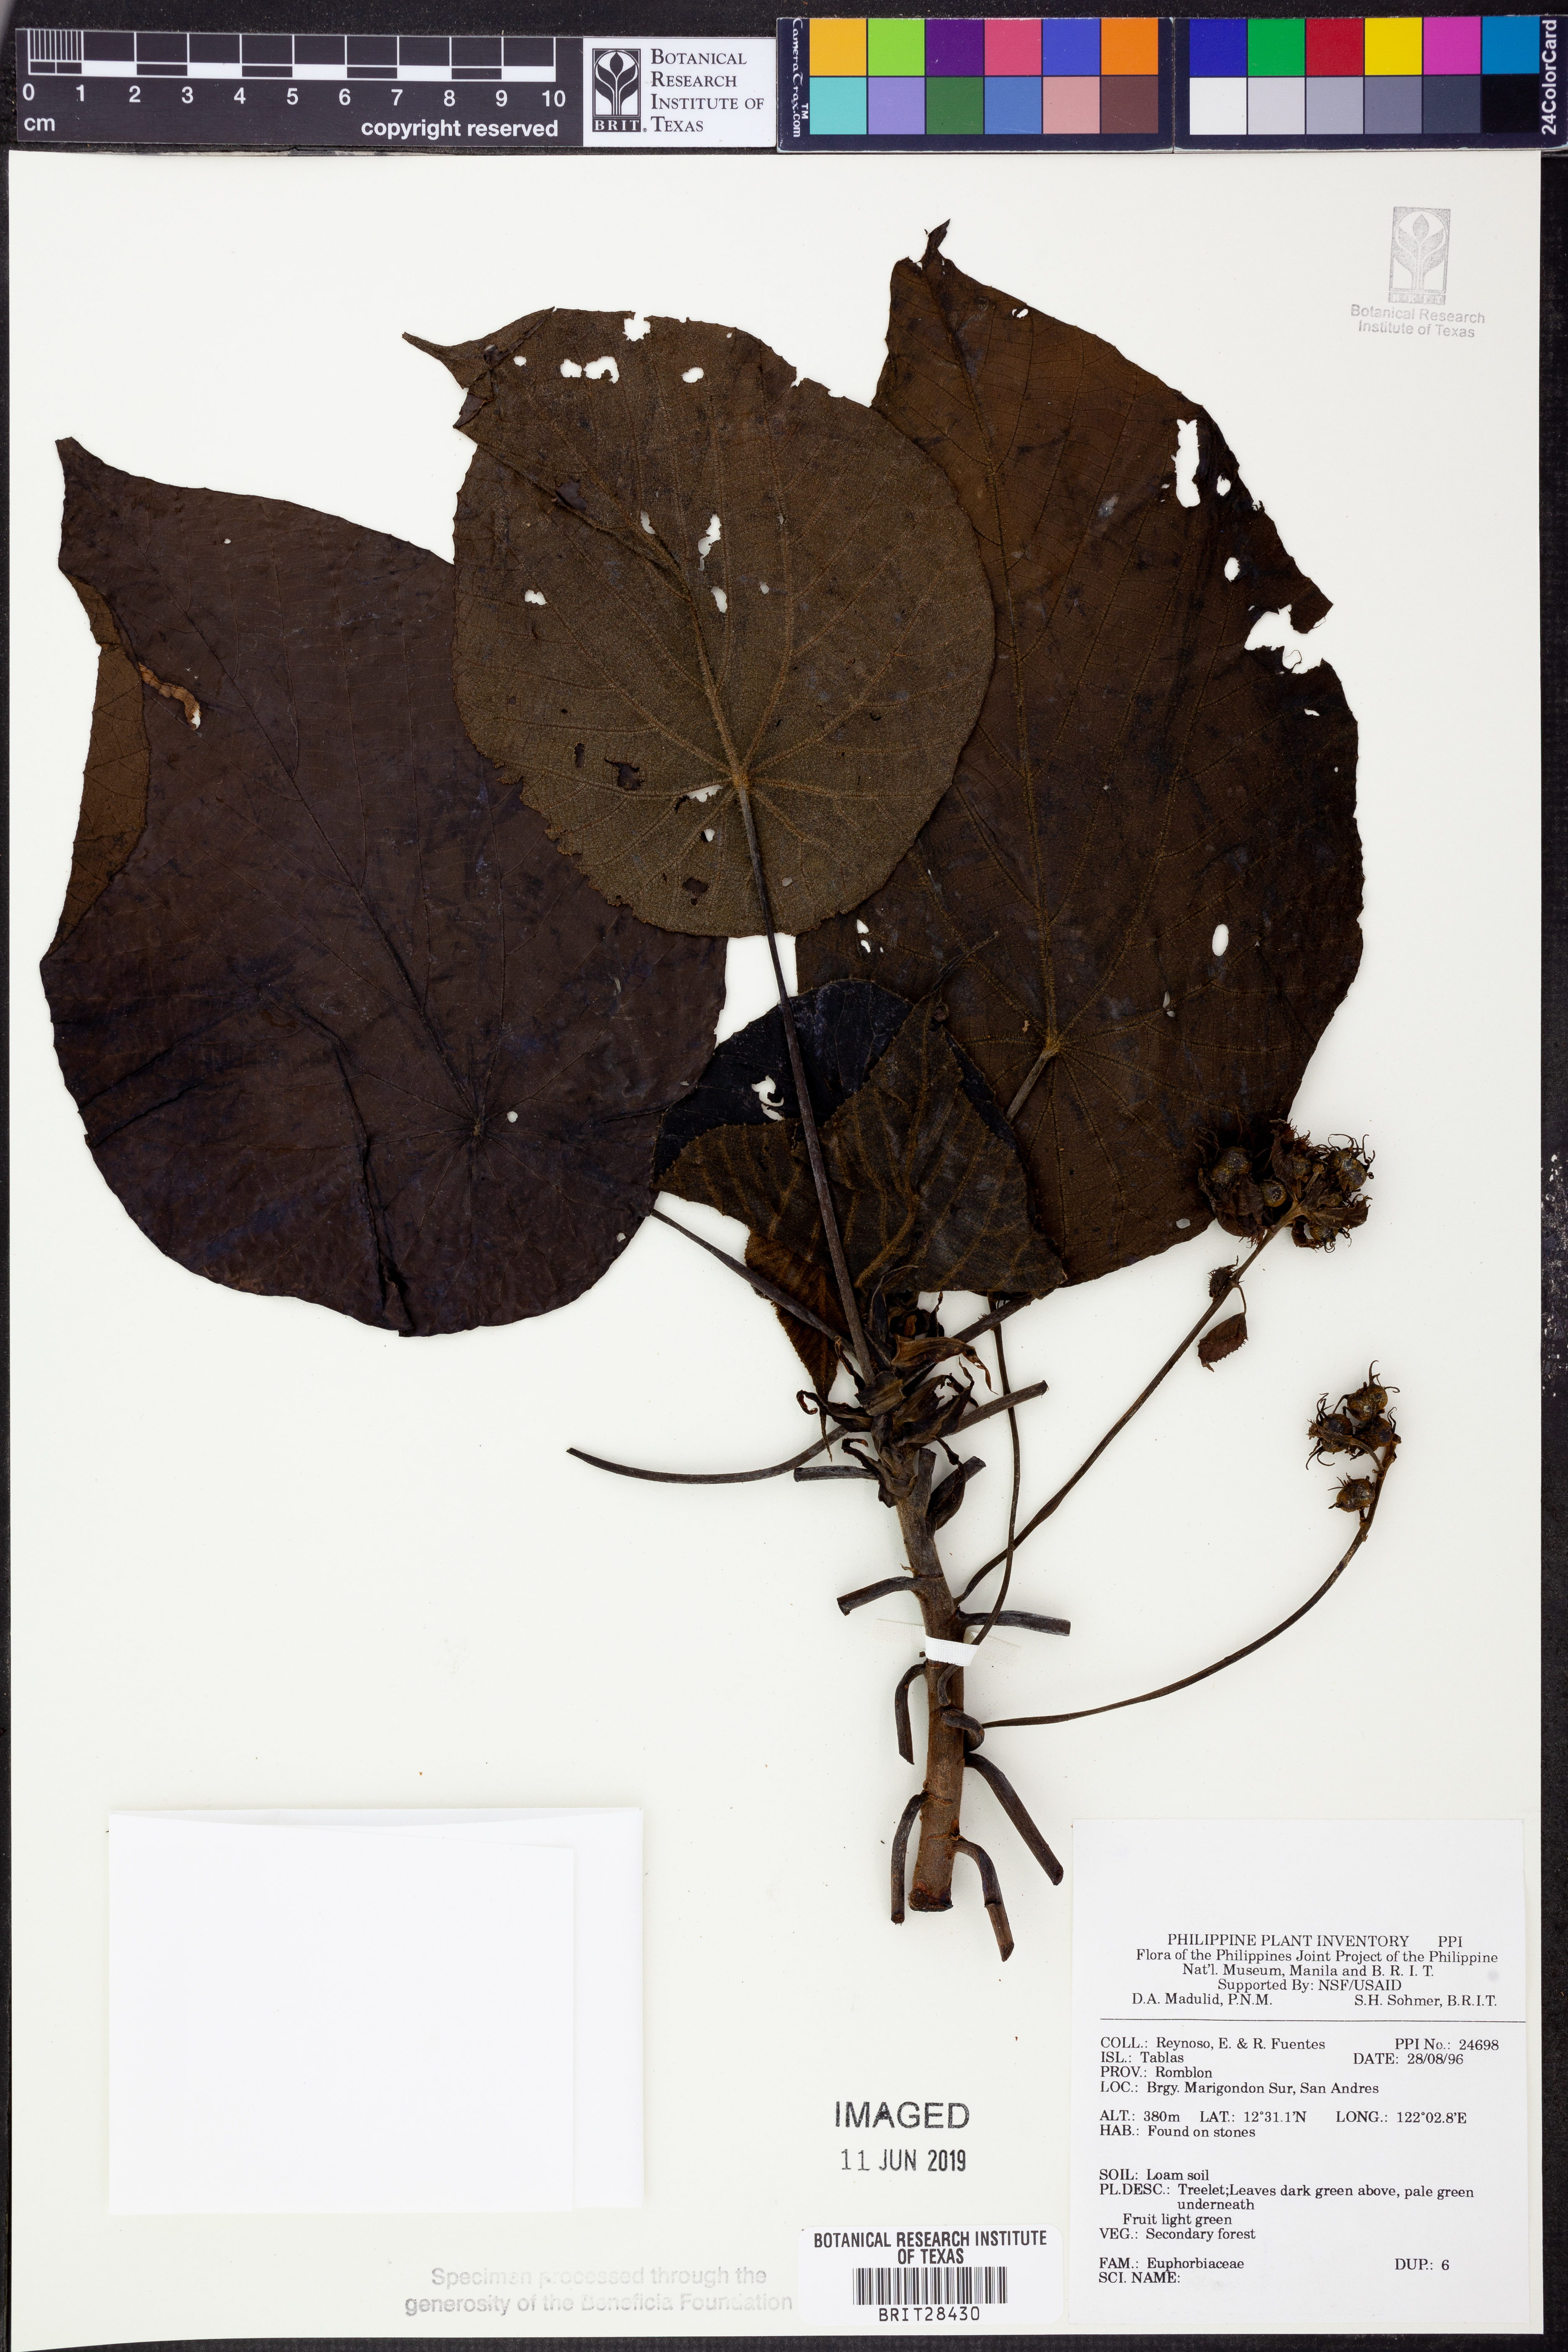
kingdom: Plantae
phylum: Tracheophyta
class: Magnoliopsida
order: Malpighiales
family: Euphorbiaceae
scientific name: Euphorbiaceae
